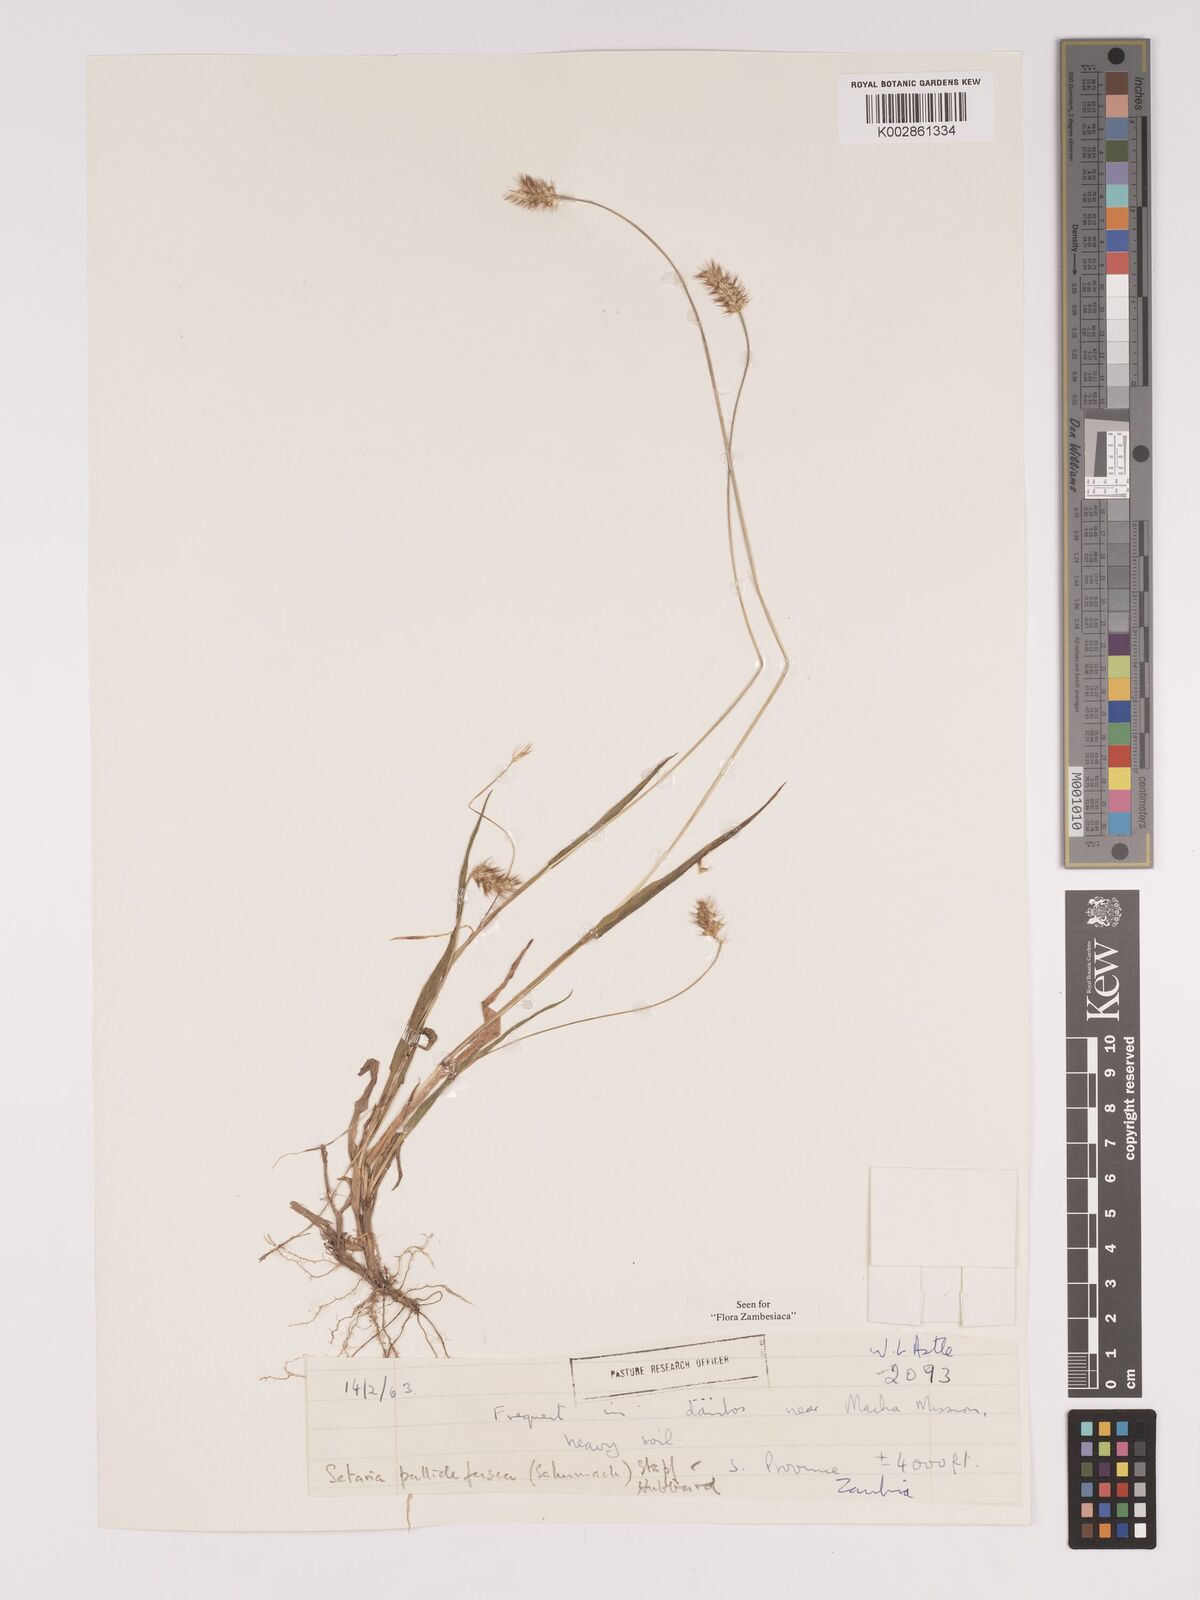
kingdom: Plantae
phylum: Tracheophyta
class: Liliopsida
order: Poales
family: Poaceae
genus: Setaria
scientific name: Setaria pumila
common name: Yellow bristle-grass
